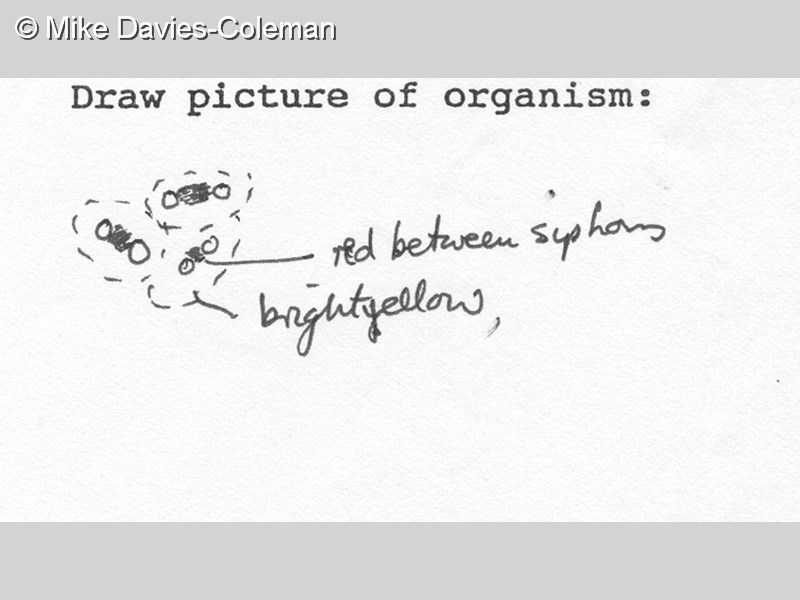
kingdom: Animalia
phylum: Chordata
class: Ascidiacea
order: Stolidobranchia
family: Styelidae
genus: Symplegma
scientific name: Symplegma
